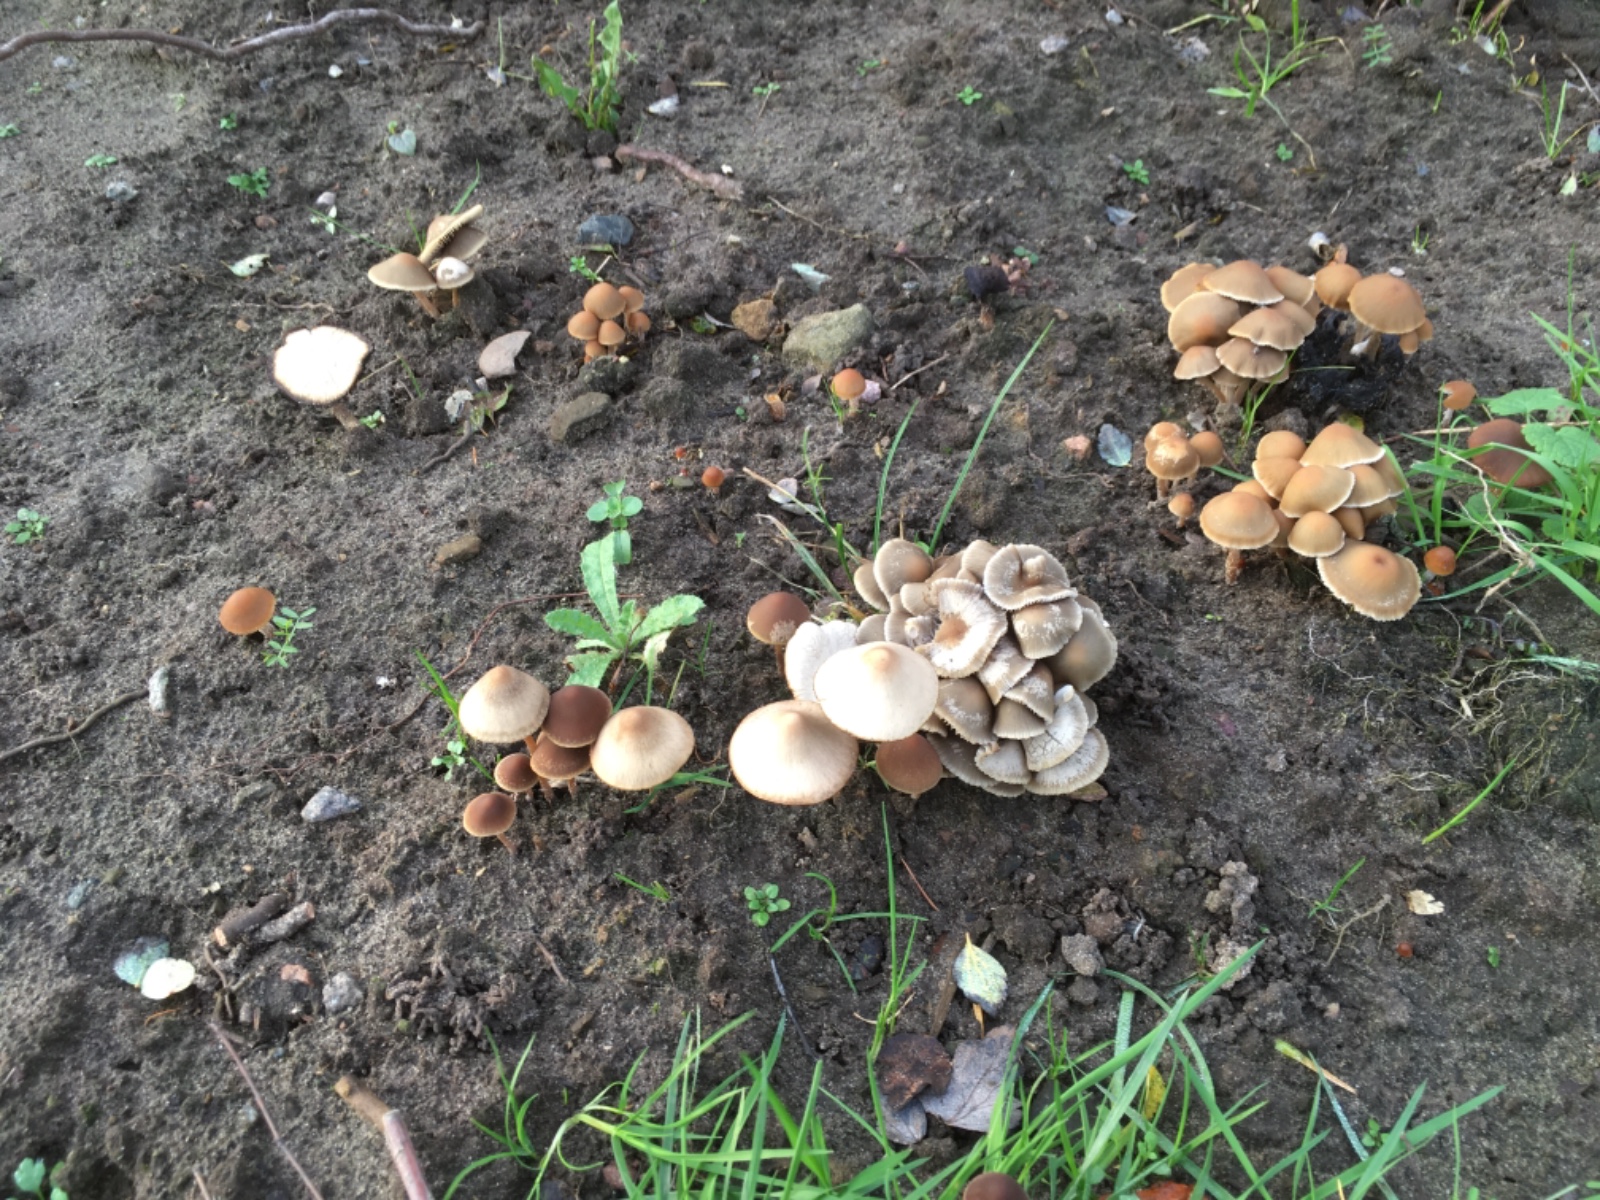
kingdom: Fungi
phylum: Basidiomycota
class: Agaricomycetes
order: Agaricales
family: Psathyrellaceae
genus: Psathyrella
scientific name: Psathyrella piluliformis
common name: lysstokket mørkhat
